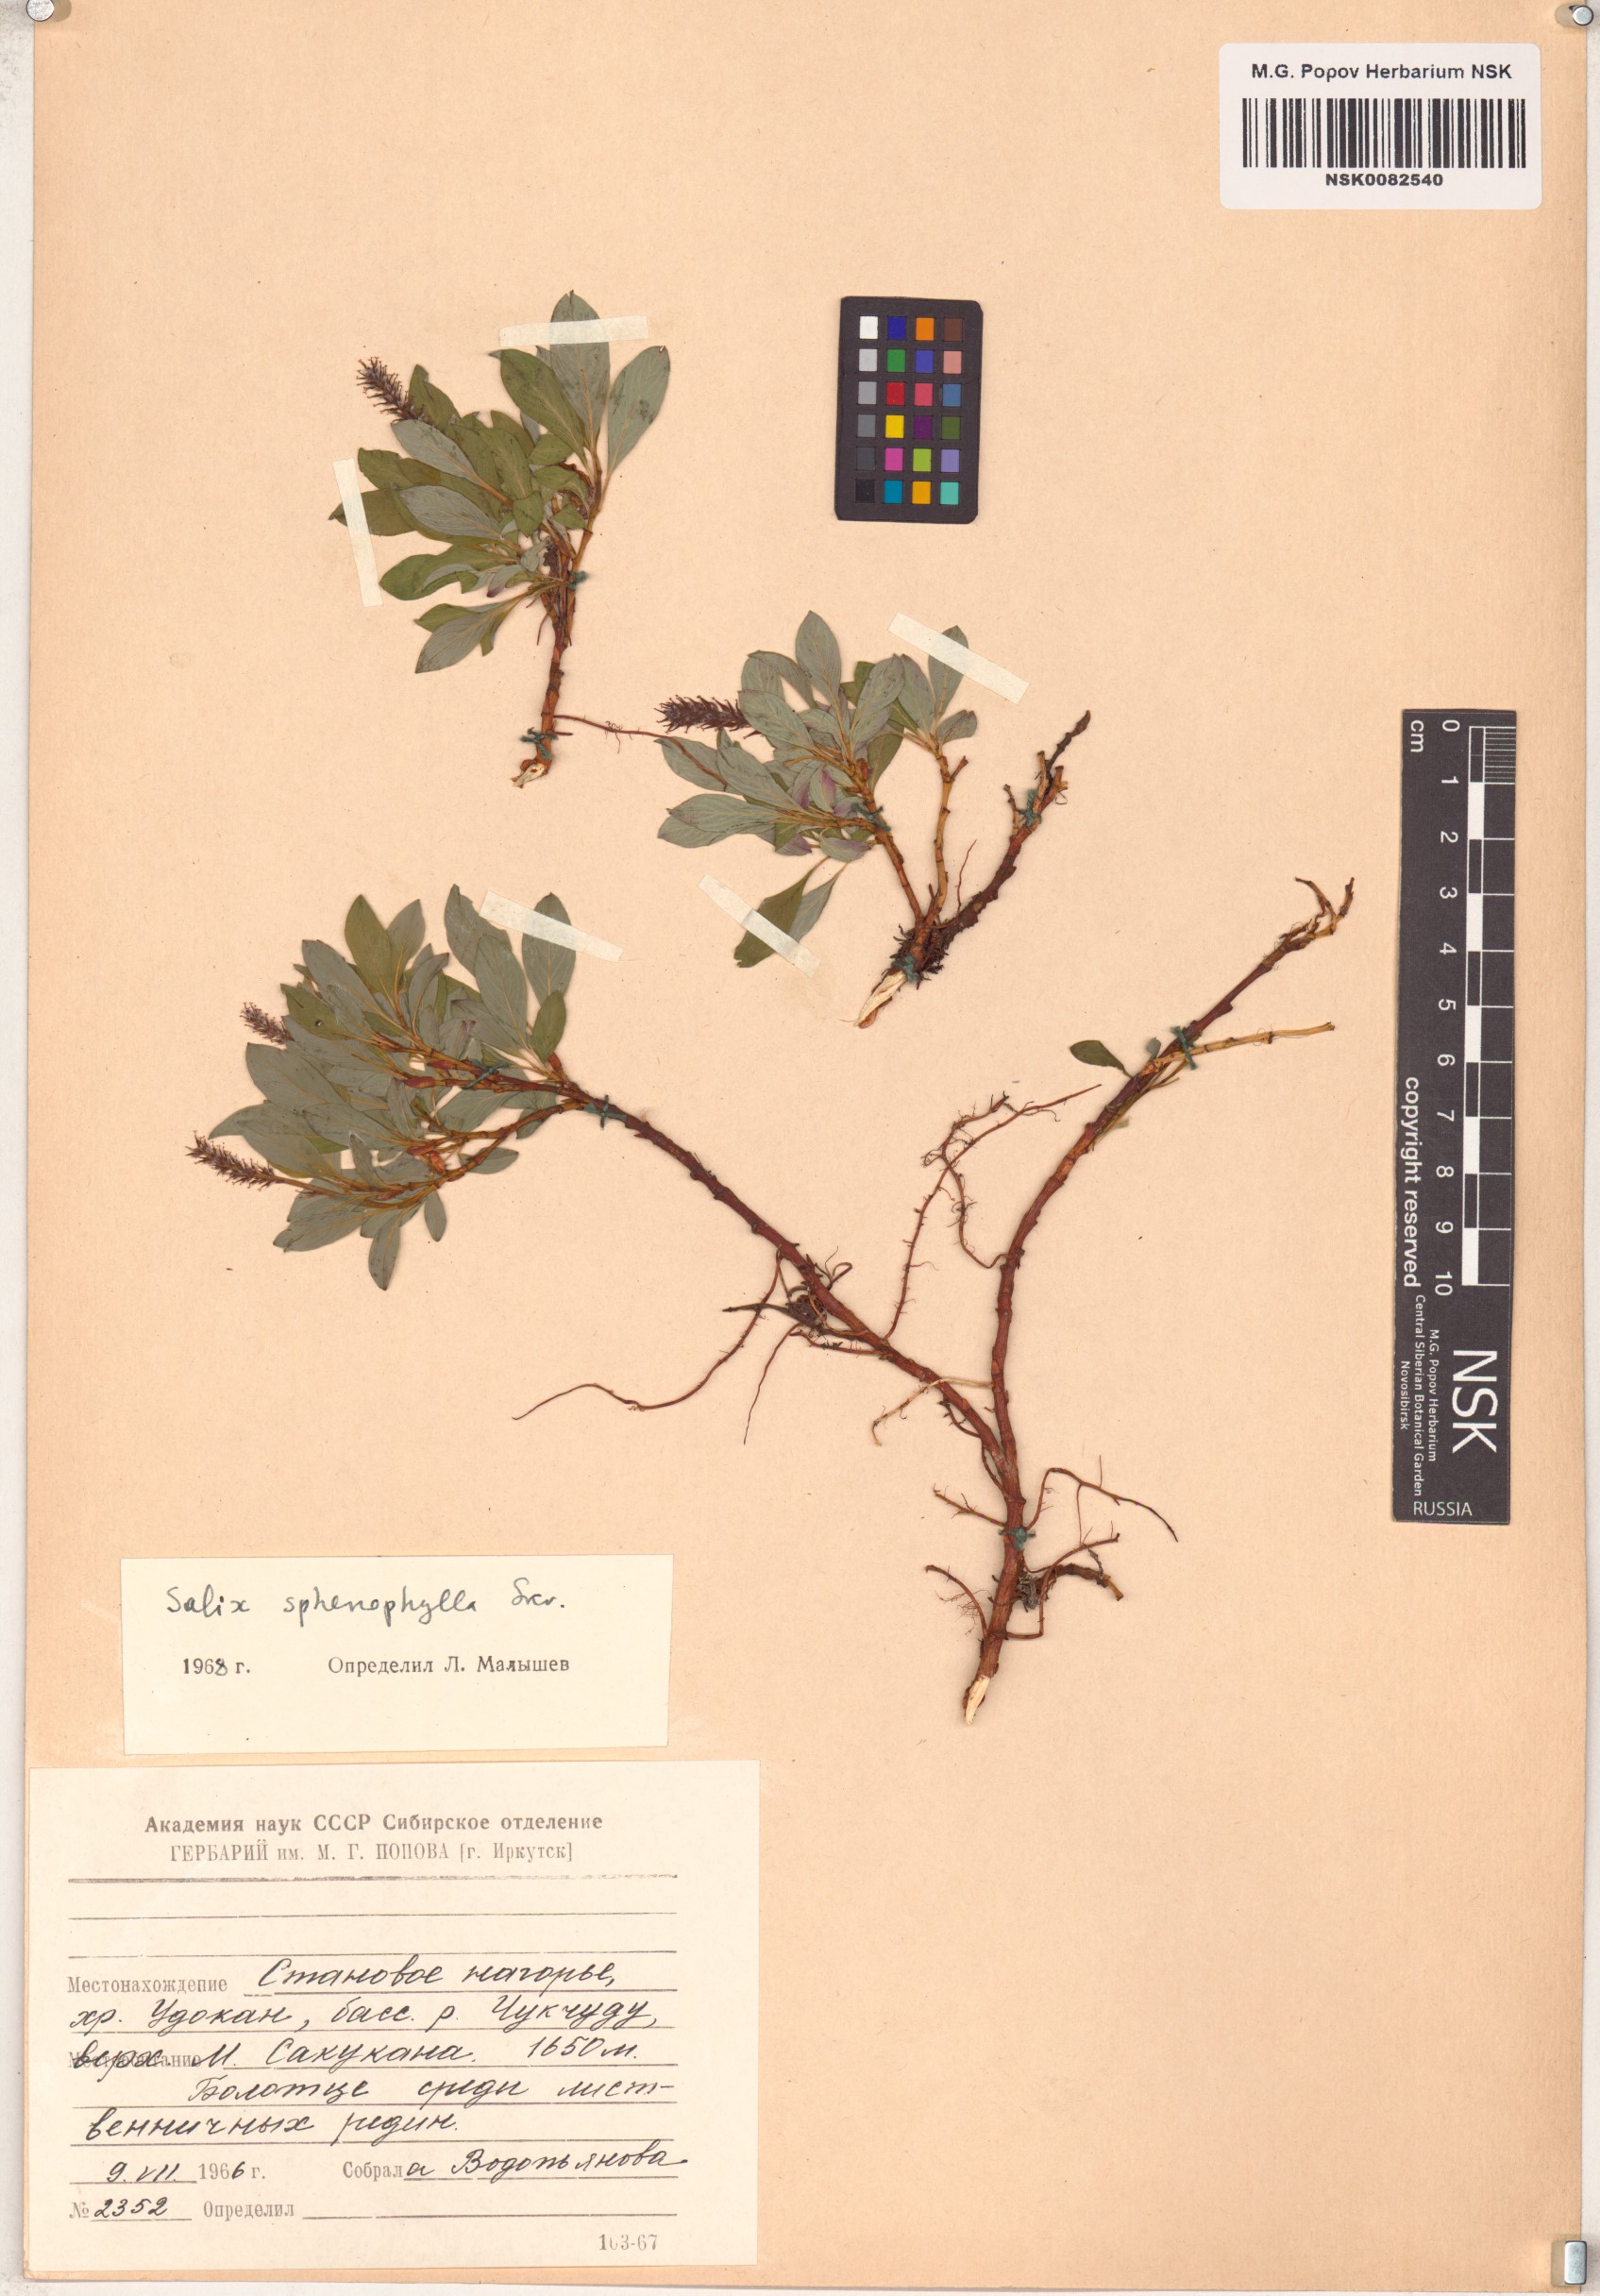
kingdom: Plantae
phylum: Tracheophyta
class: Magnoliopsida
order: Malpighiales
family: Salicaceae
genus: Salix
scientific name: Salix sphenophylla
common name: Wedge-leaved willow
